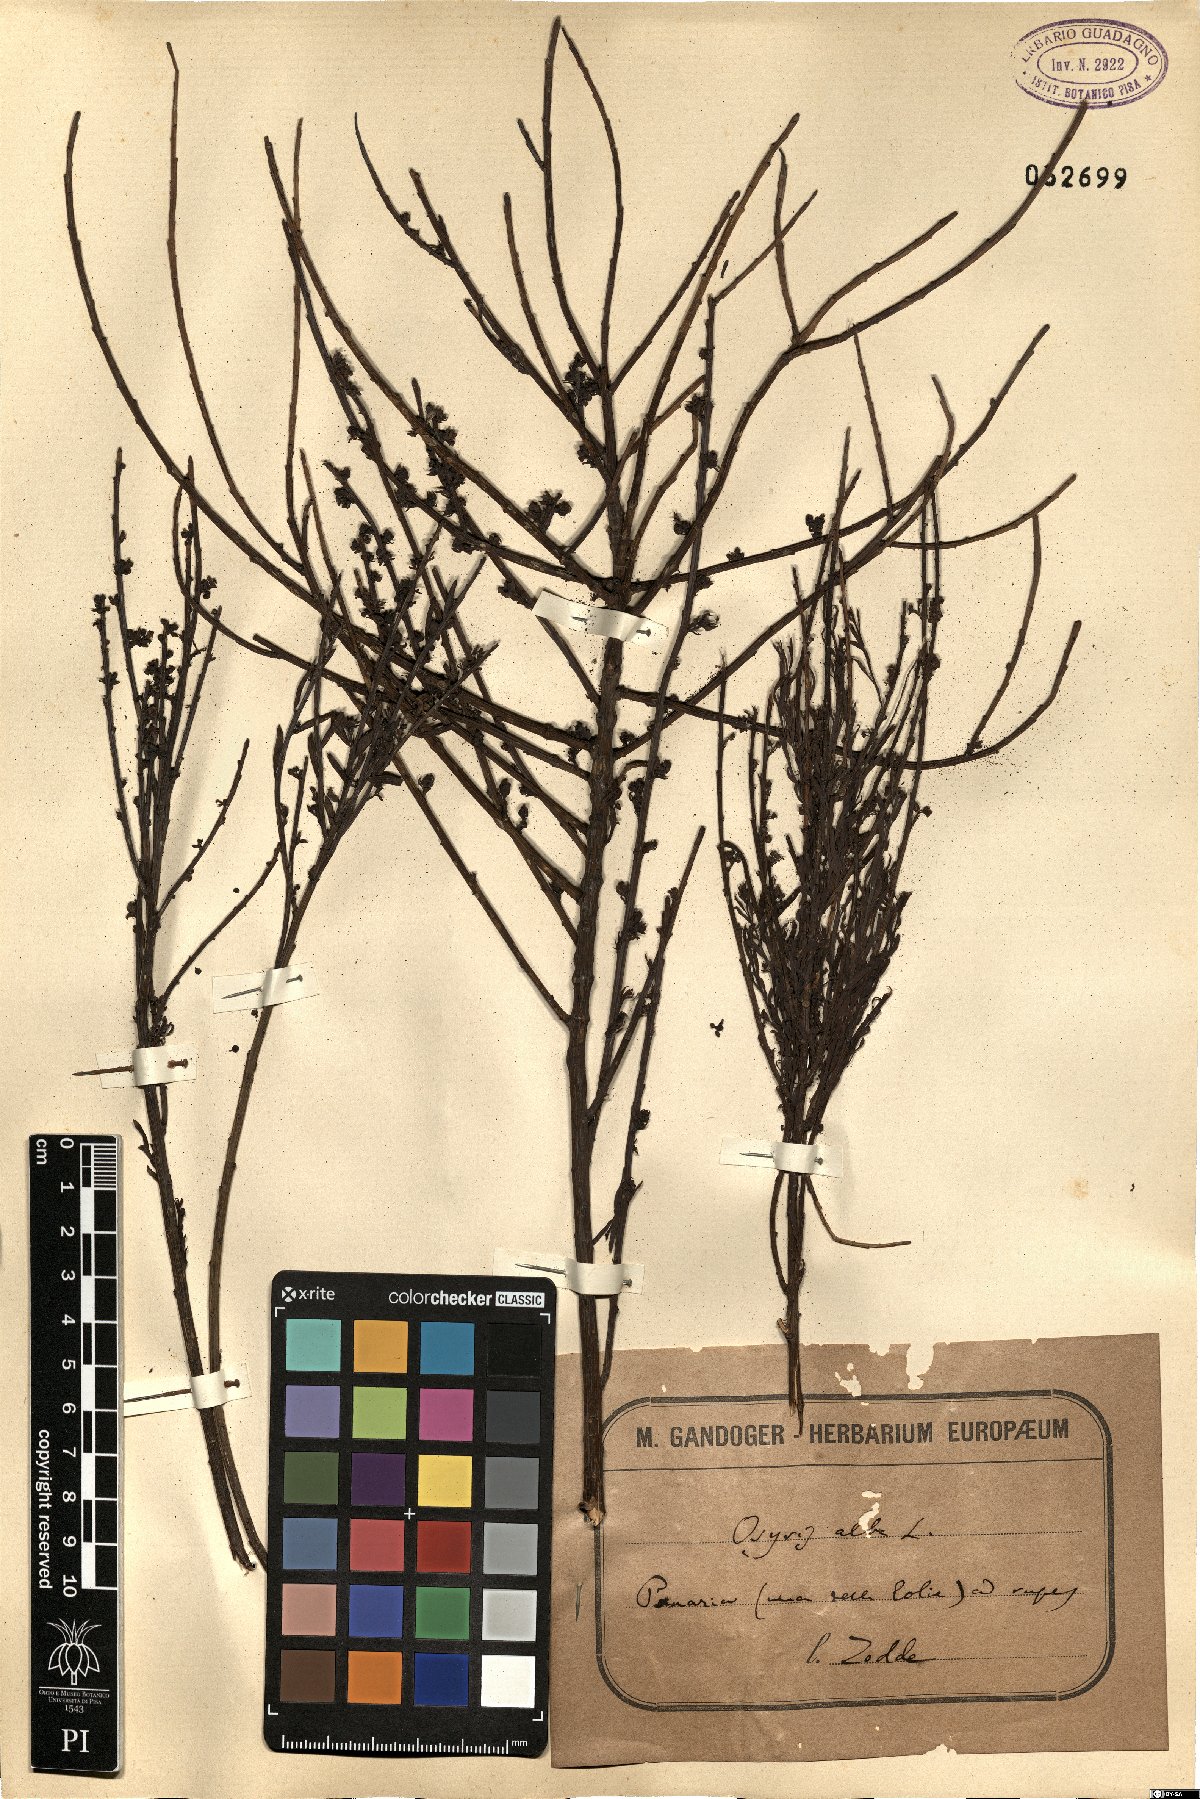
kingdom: Plantae
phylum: Tracheophyta
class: Magnoliopsida
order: Santalales
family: Santalaceae
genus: Osyris
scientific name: Osyris alba
